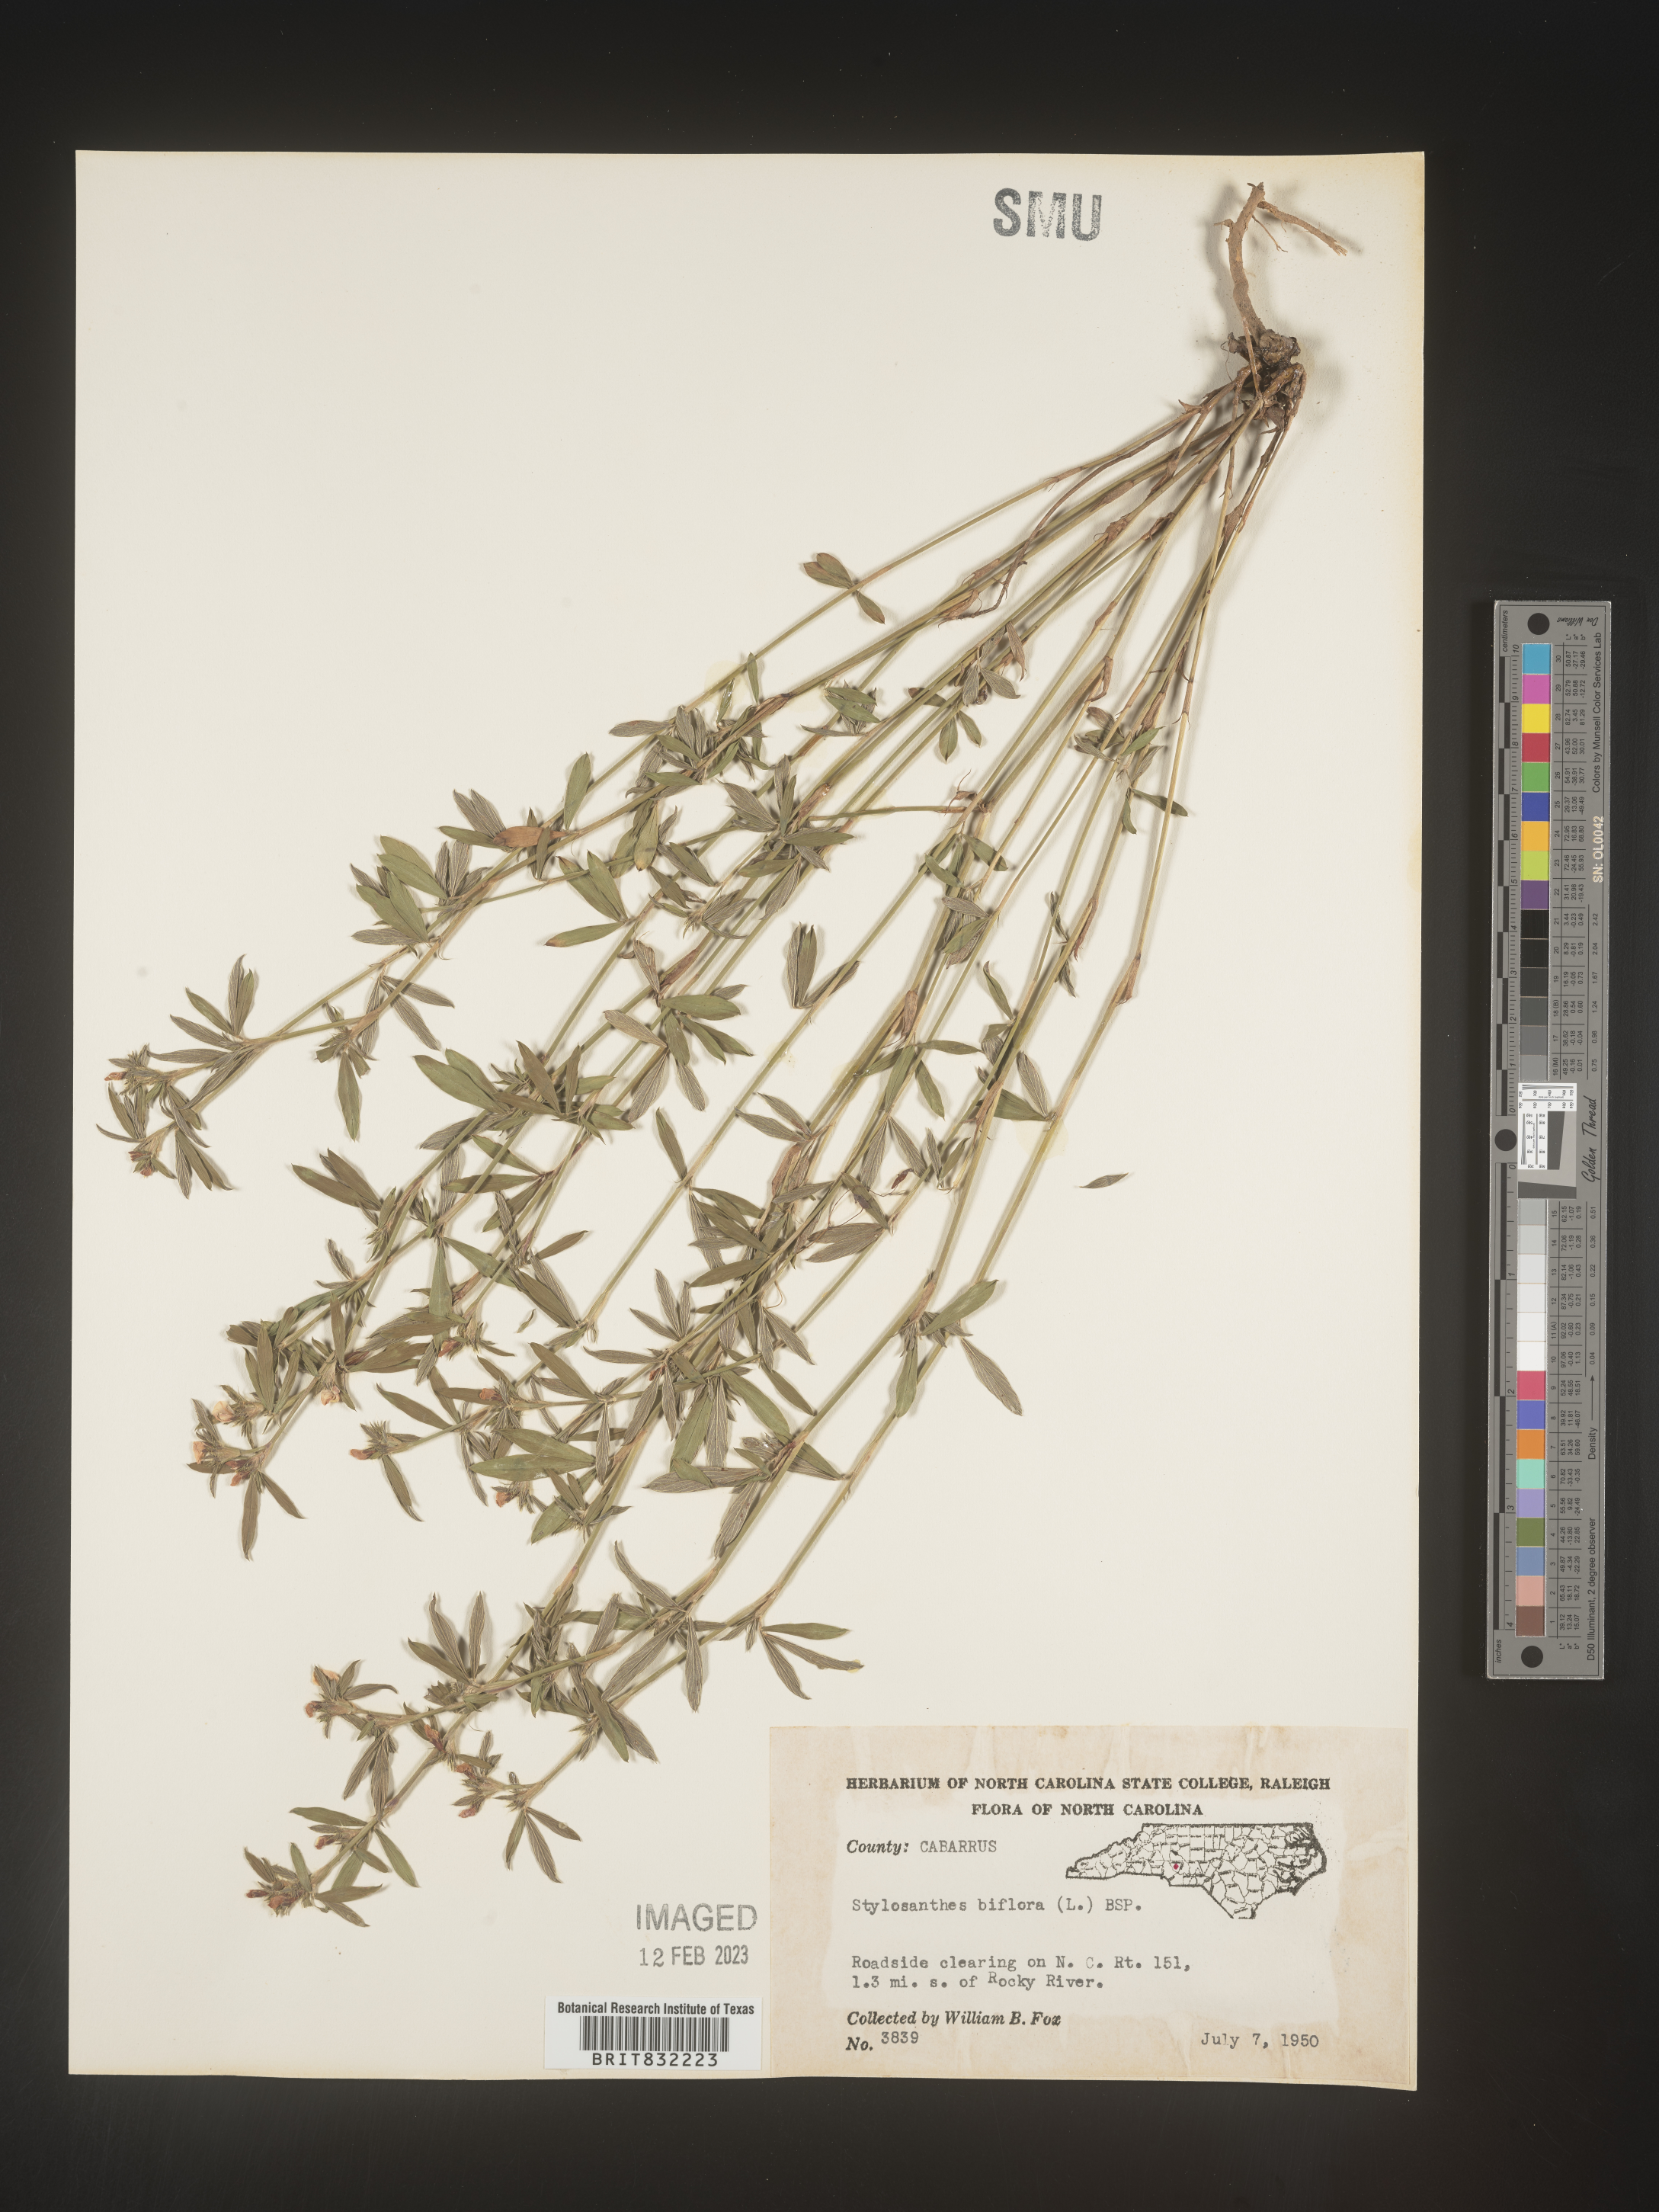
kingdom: Plantae
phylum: Tracheophyta
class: Magnoliopsida
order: Fabales
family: Fabaceae
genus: Stylosanthes
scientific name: Stylosanthes biflora
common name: Two-flower pencil-flower
